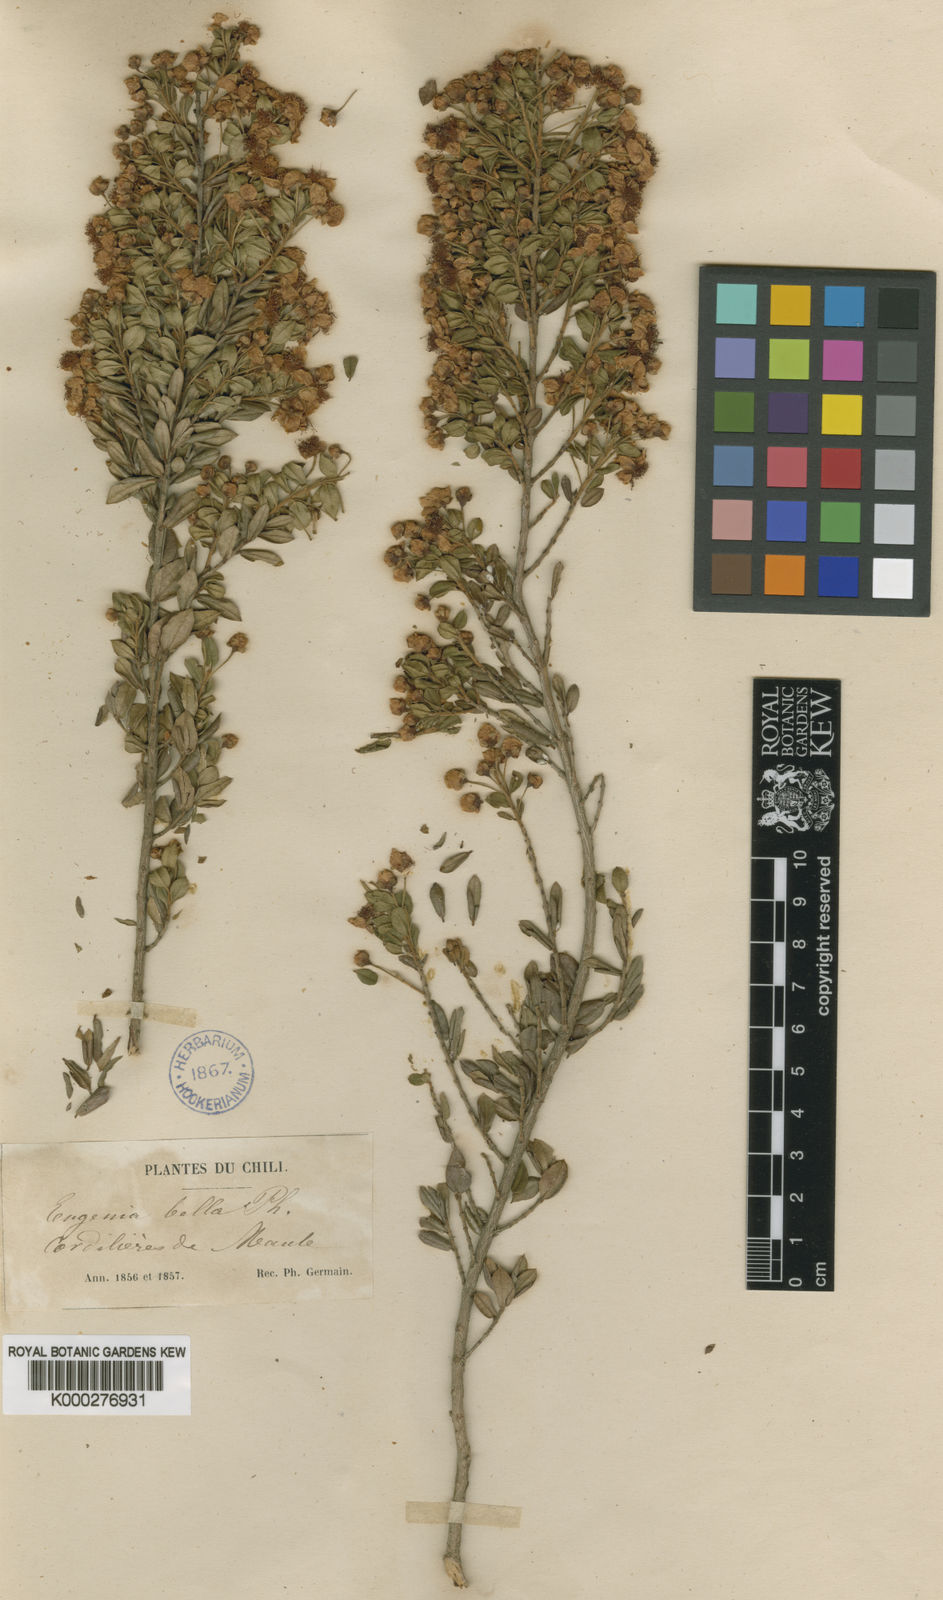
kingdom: Plantae
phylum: Tracheophyta
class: Magnoliopsida
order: Myrtales
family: Myrtaceae
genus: Luma
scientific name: Luma chequen
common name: Cheken
